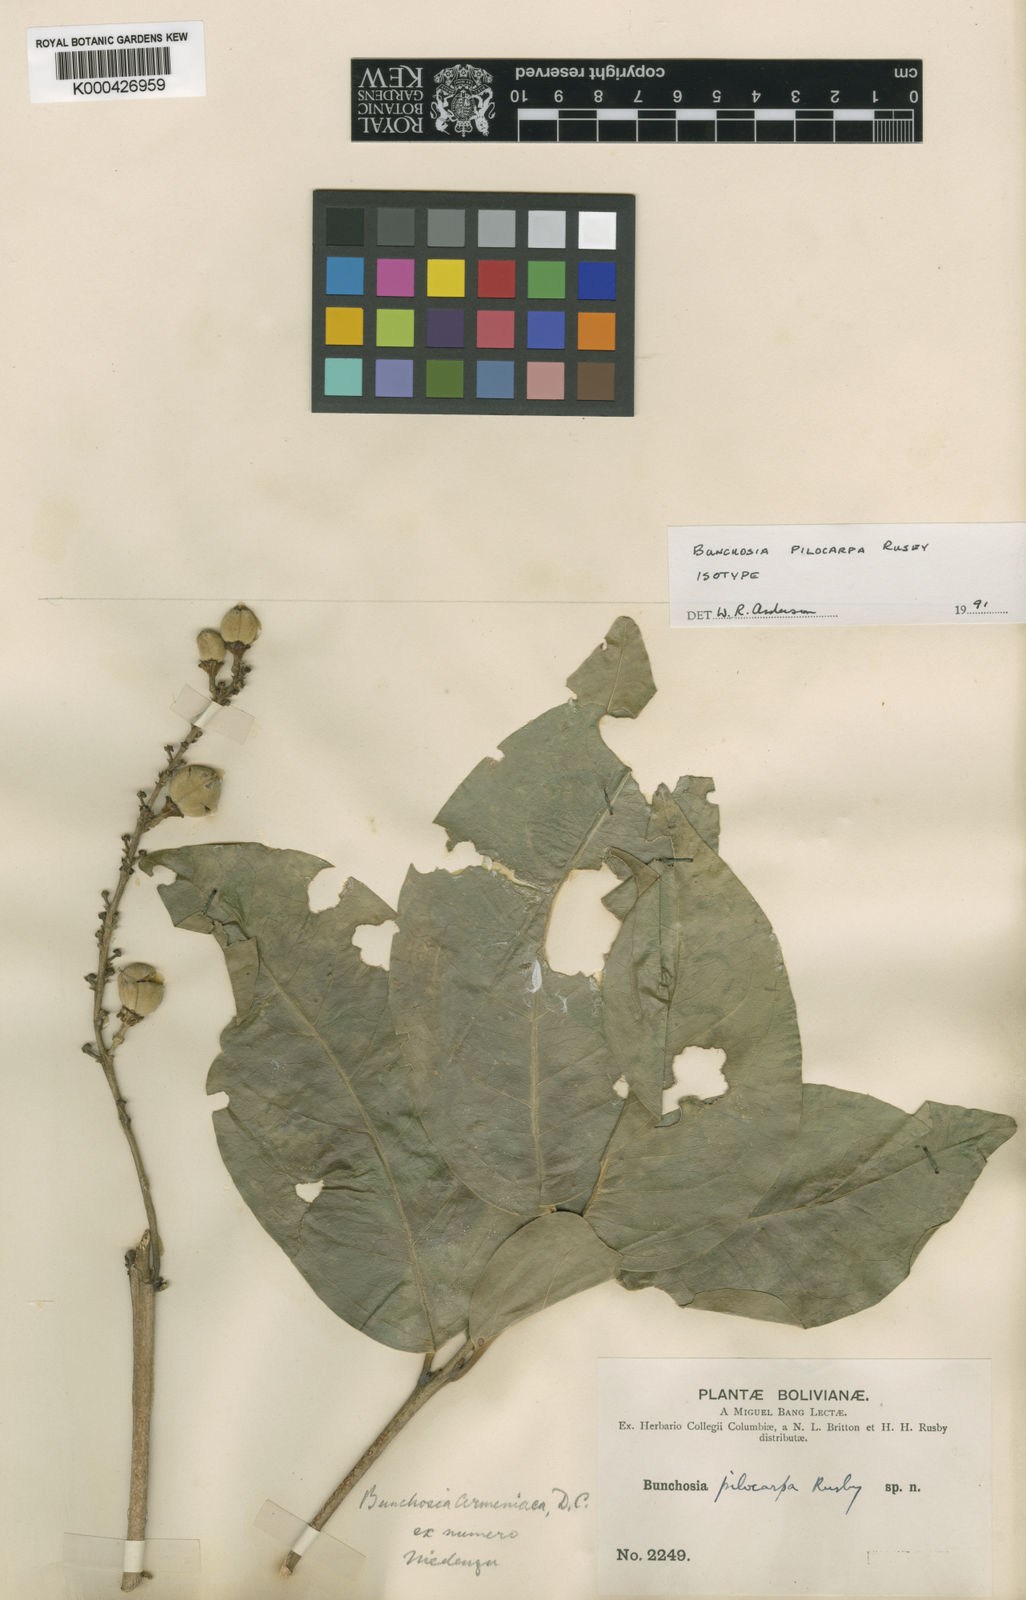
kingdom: Plantae
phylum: Tracheophyta
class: Magnoliopsida
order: Malpighiales
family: Malpighiaceae
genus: Bunchosia
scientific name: Bunchosia pilocarpa
